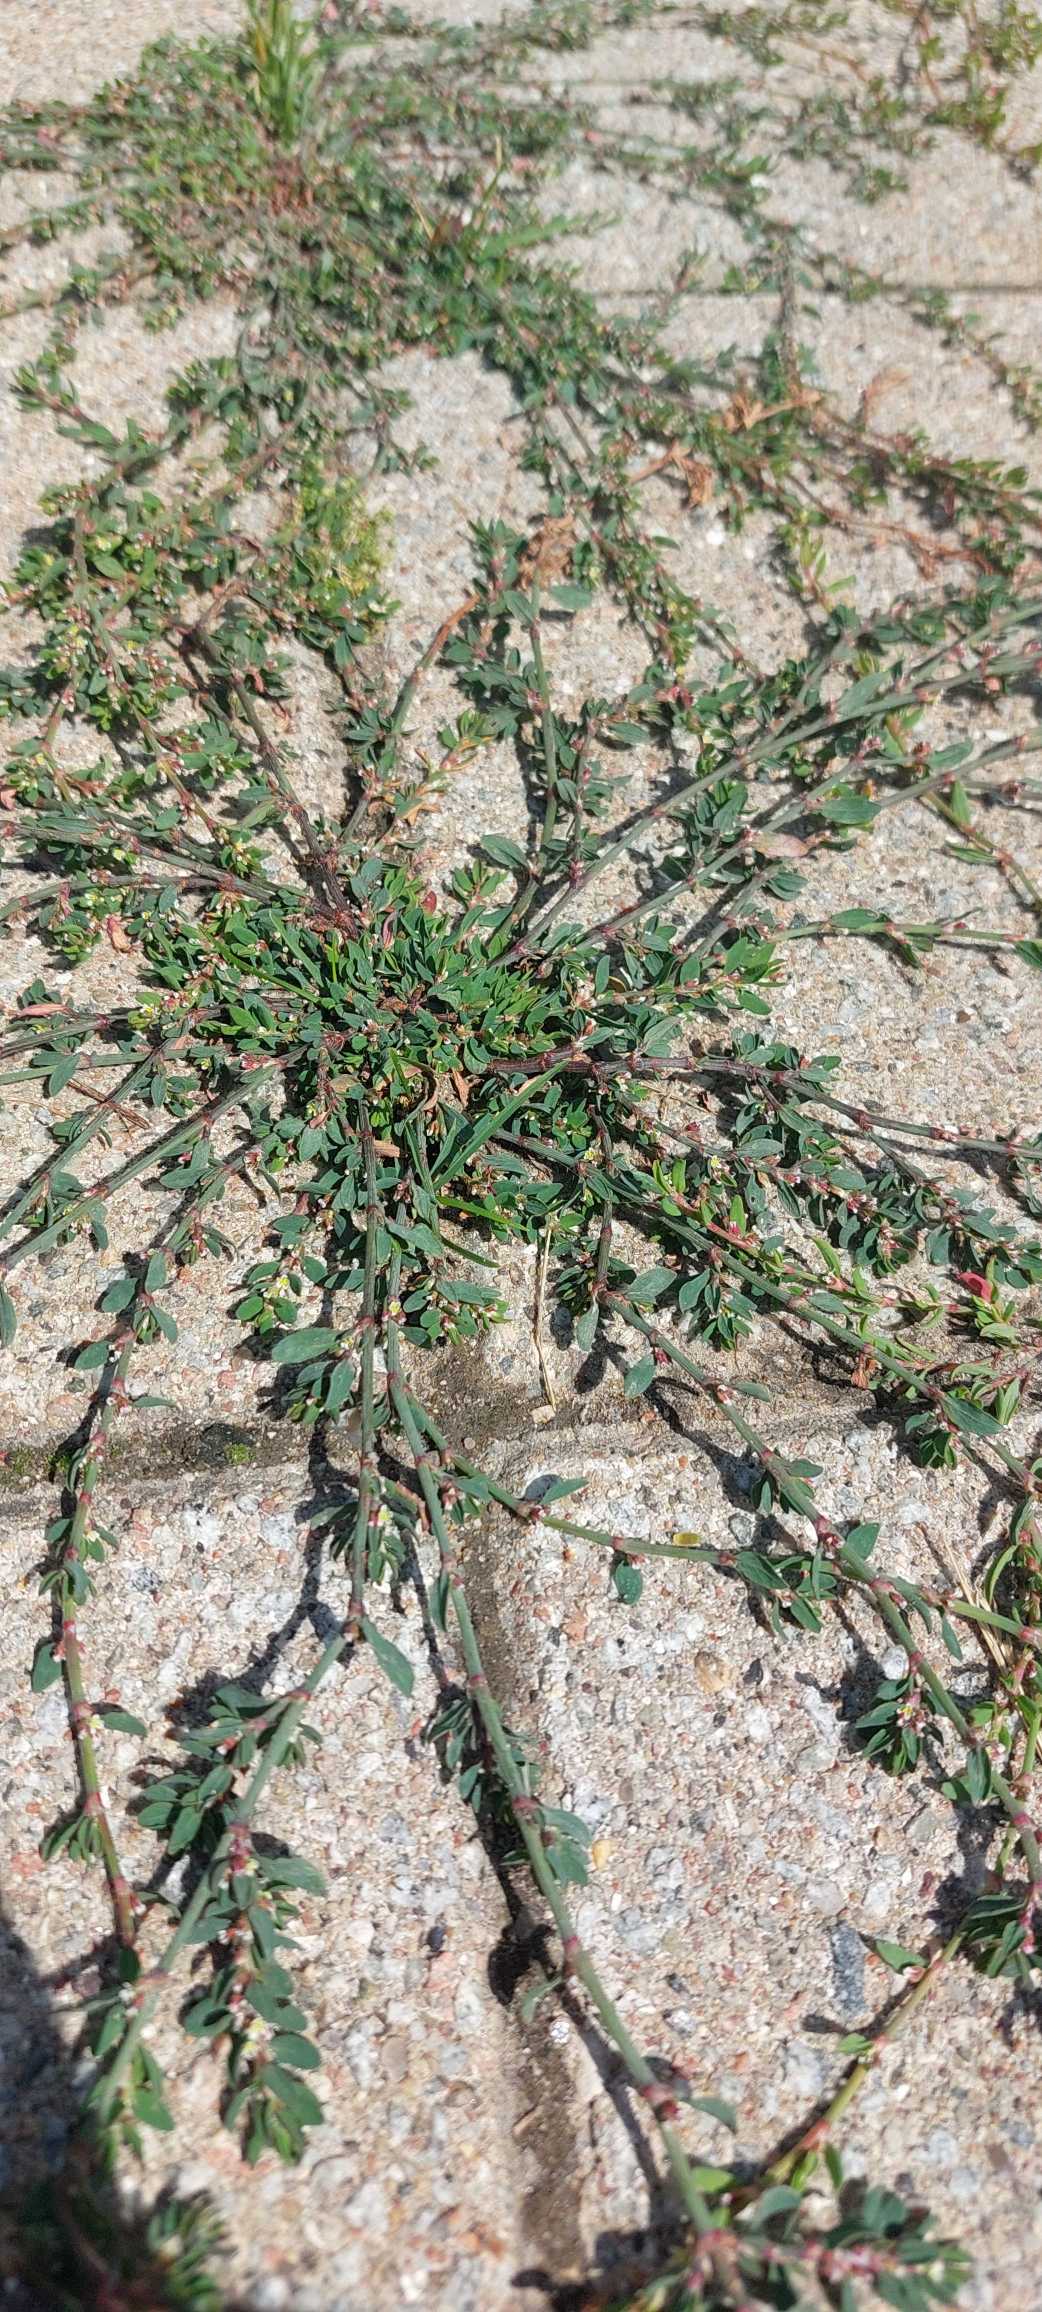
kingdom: Plantae
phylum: Tracheophyta
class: Magnoliopsida
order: Caryophyllales
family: Polygonaceae
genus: Polygonum
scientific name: Polygonum arenastrum
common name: Liggende vej-pileurt
